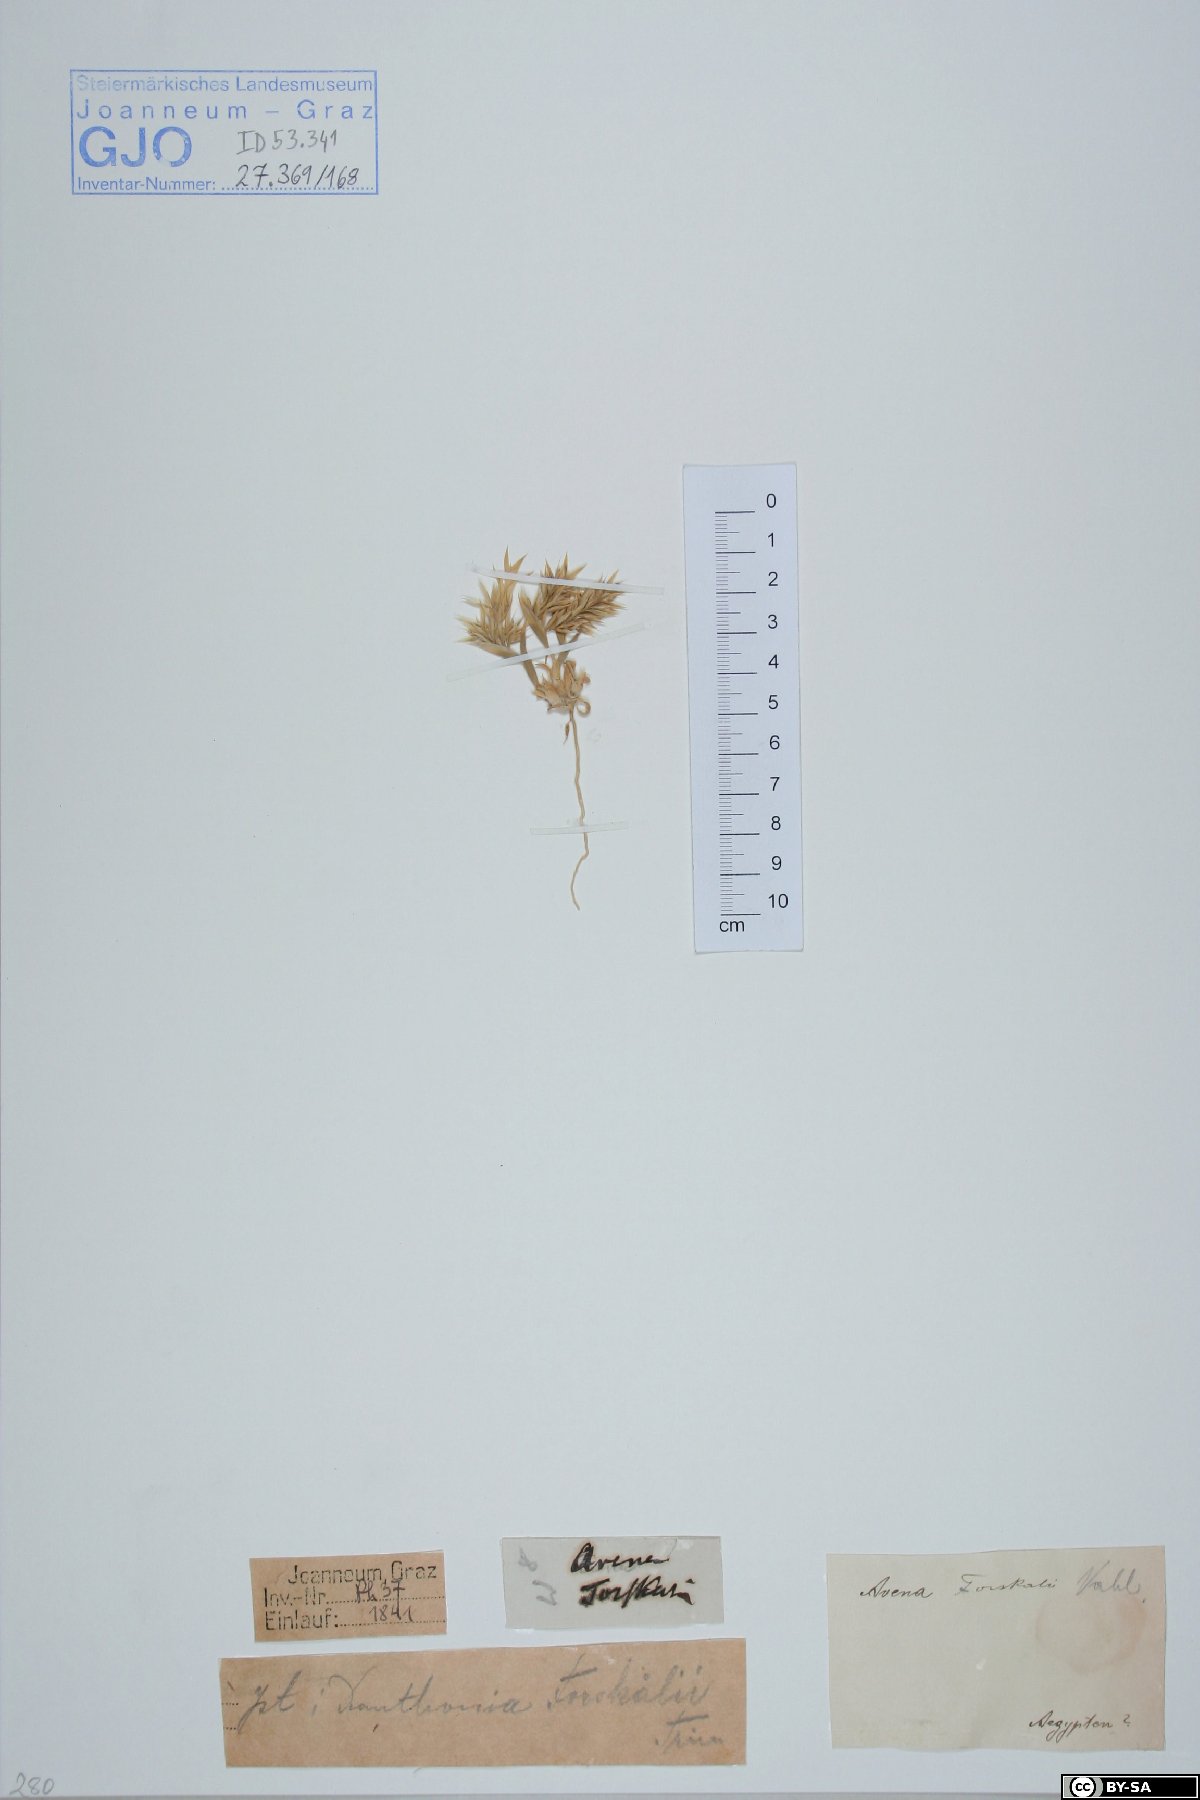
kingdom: Plantae
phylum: Tracheophyta
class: Liliopsida
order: Poales
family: Poaceae
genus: Centropodia
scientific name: Centropodia forsskalii
